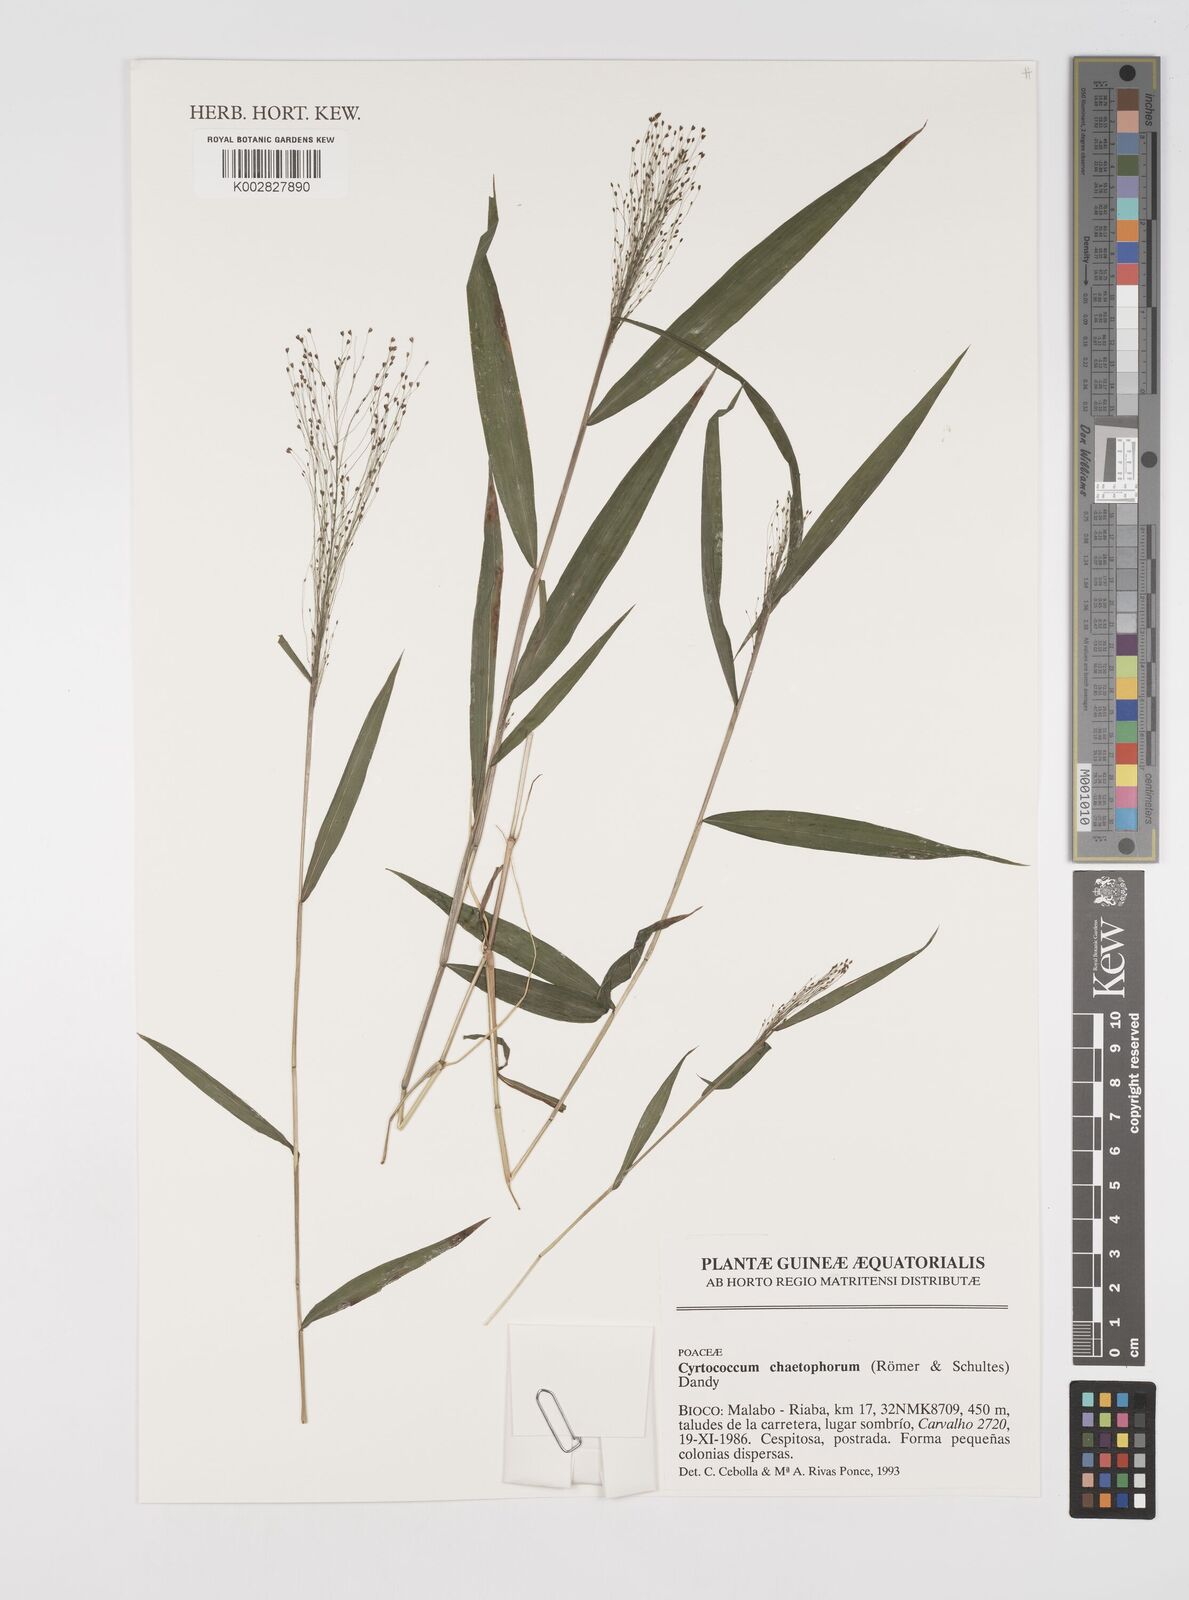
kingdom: Plantae
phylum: Tracheophyta
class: Liliopsida
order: Poales
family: Poaceae
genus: Cyrtococcum
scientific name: Cyrtococcum chaetophoron
